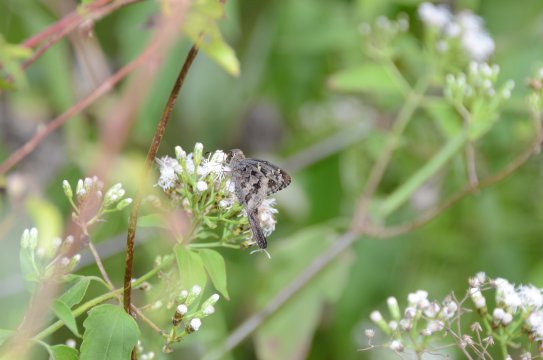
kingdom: Animalia
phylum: Arthropoda
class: Insecta
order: Lepidoptera
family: Hesperiidae
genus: Urbanus
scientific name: Urbanus dorantes
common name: Dorantes Longtail
